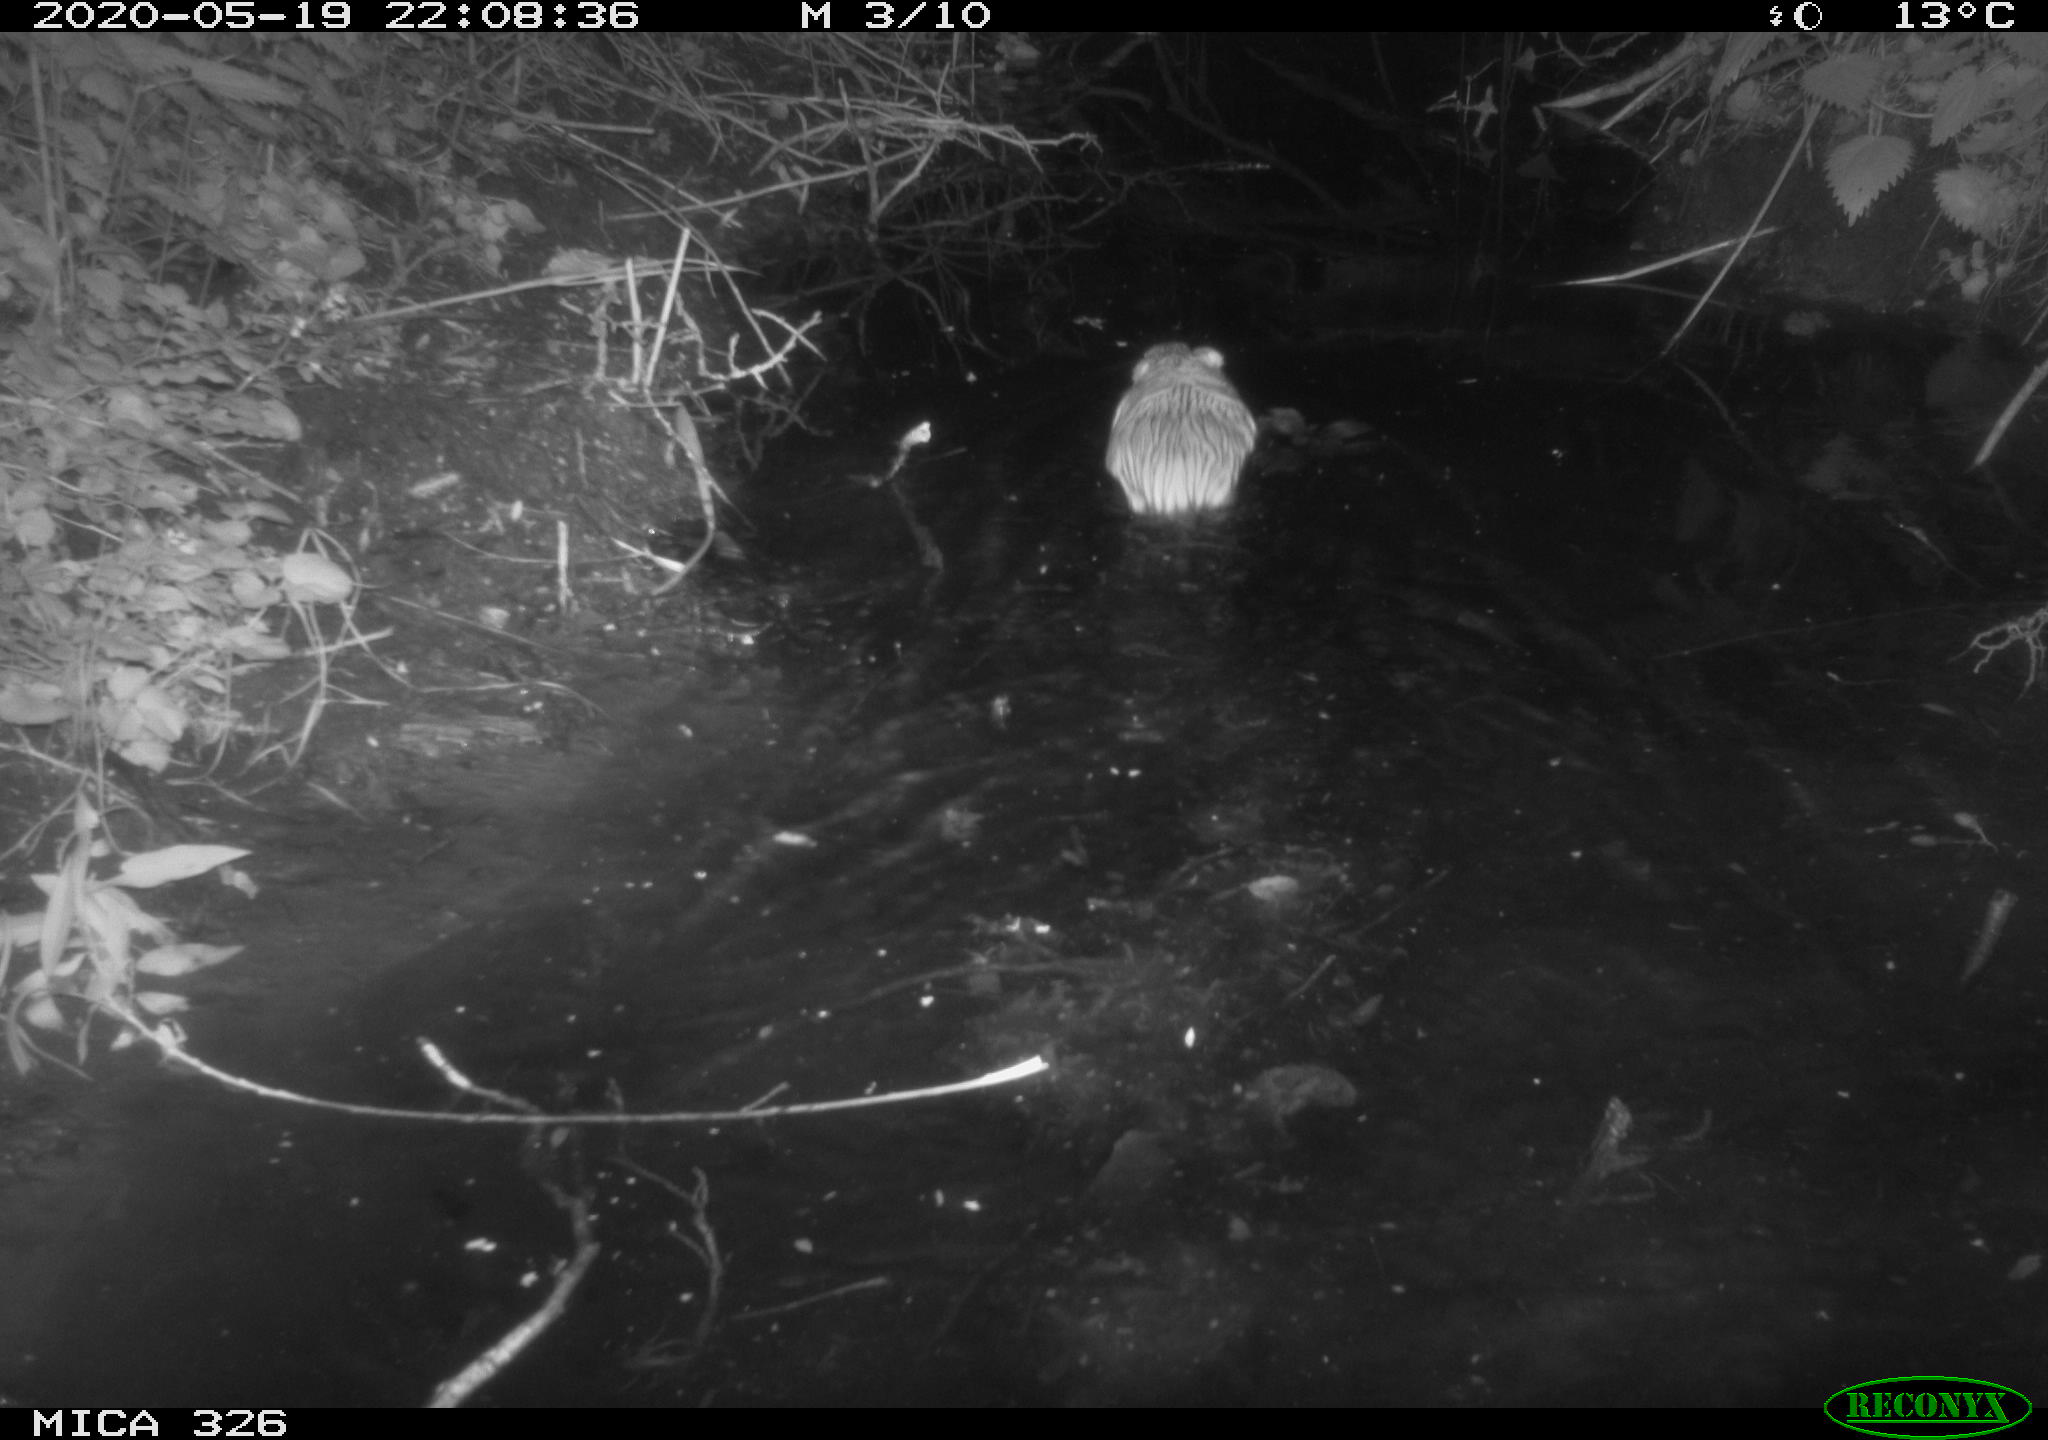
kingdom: Animalia
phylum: Chordata
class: Mammalia
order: Rodentia
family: Myocastoridae
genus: Myocastor
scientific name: Myocastor coypus
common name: Coypu
